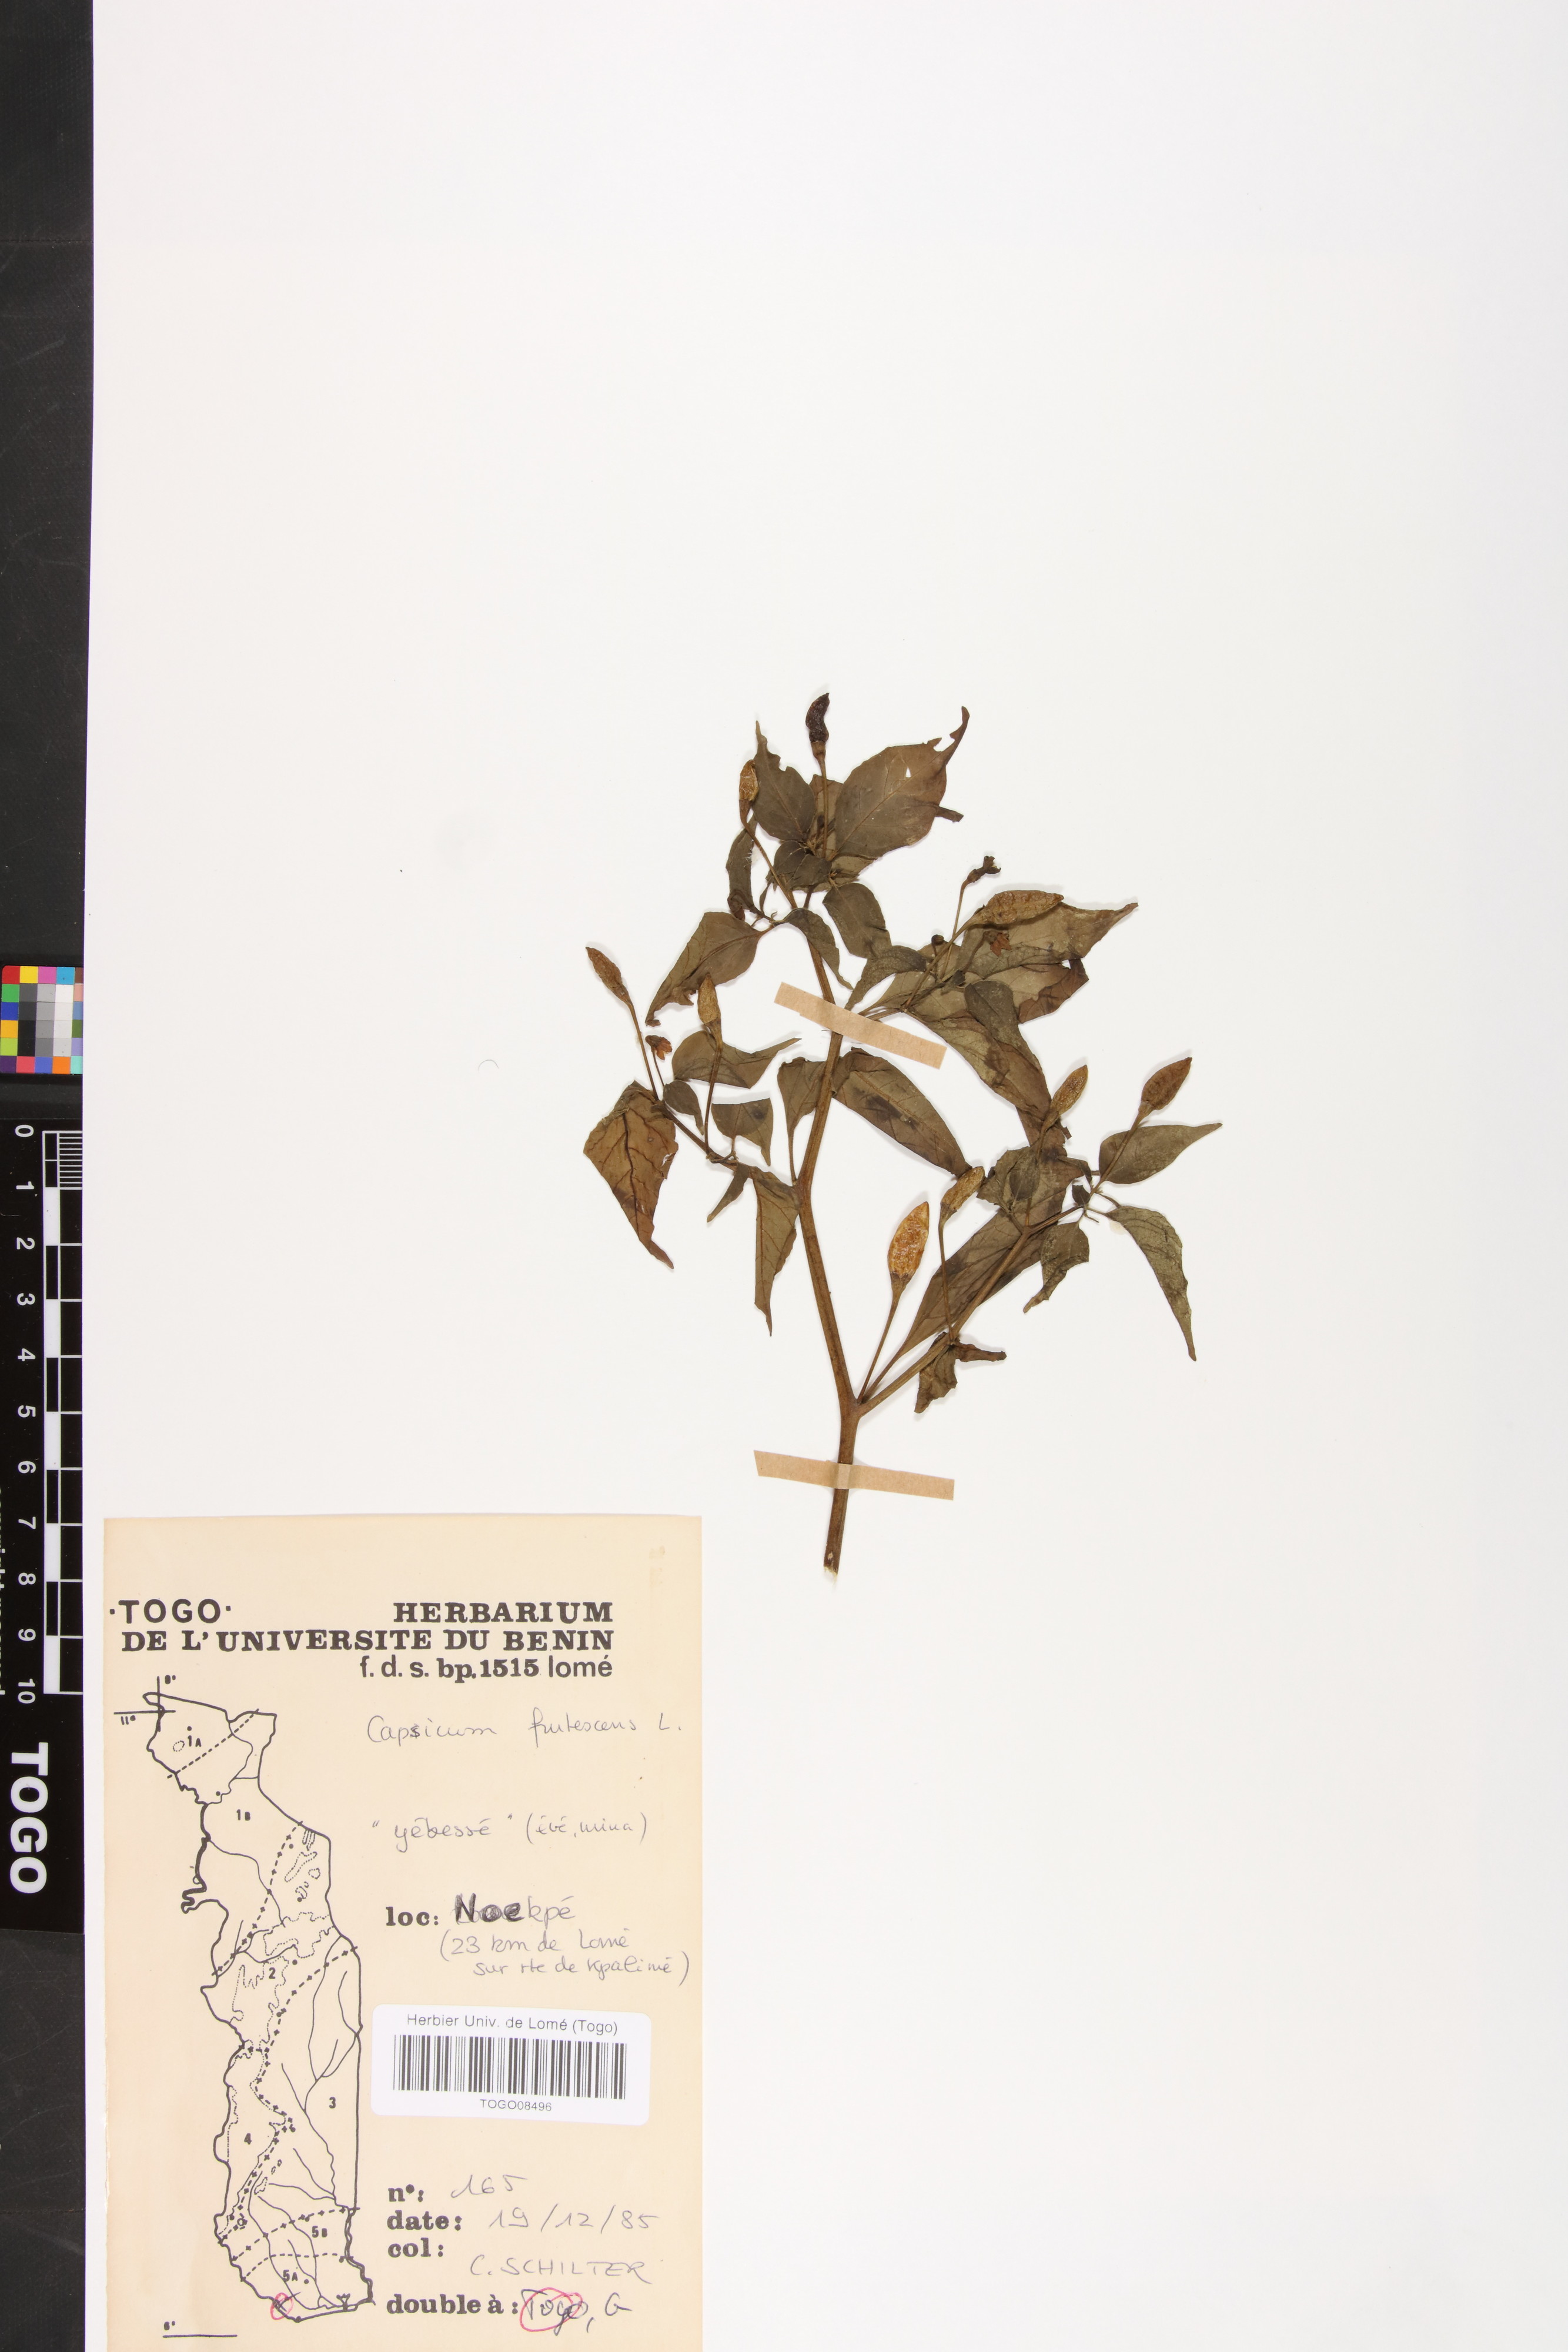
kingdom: Plantae
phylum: Tracheophyta
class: Magnoliopsida
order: Solanales
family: Solanaceae
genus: Capsicum
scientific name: Capsicum frutescens
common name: Bird pepper
